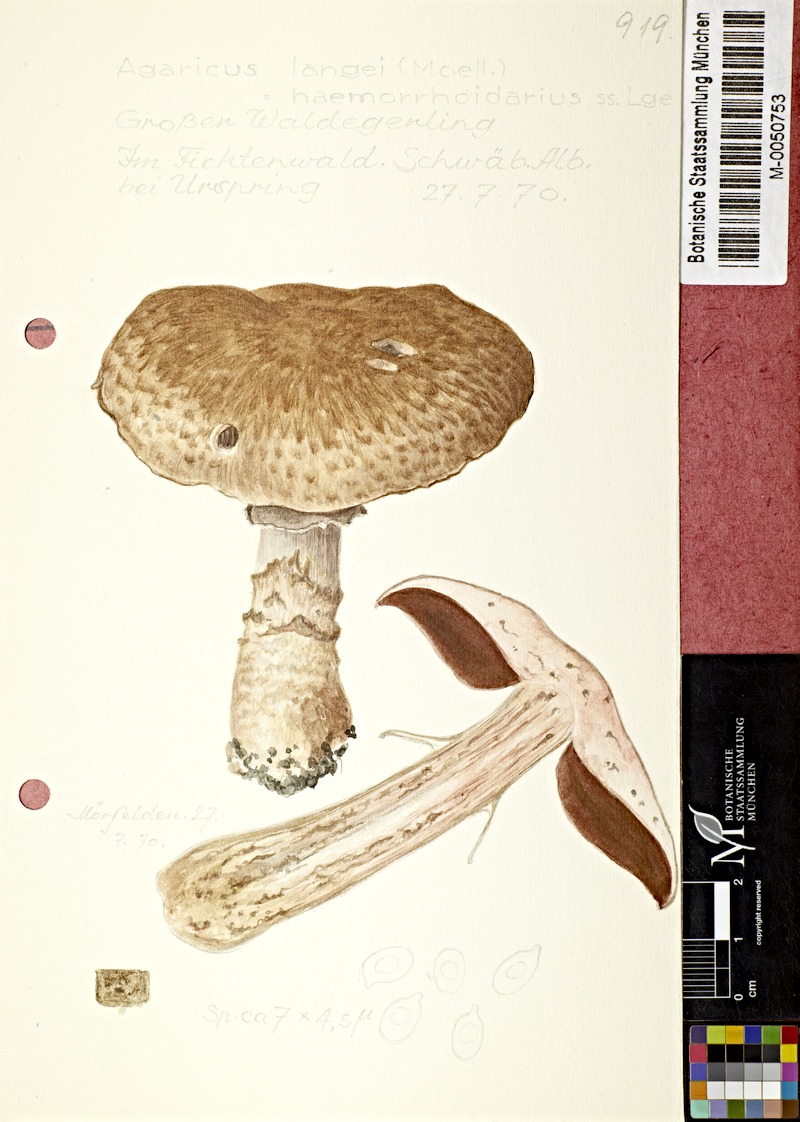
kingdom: Fungi
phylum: Basidiomycota
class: Agaricomycetes
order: Agaricales
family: Agaricaceae
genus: Agaricus
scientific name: Agaricus langei
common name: Scaly wood mushroom
